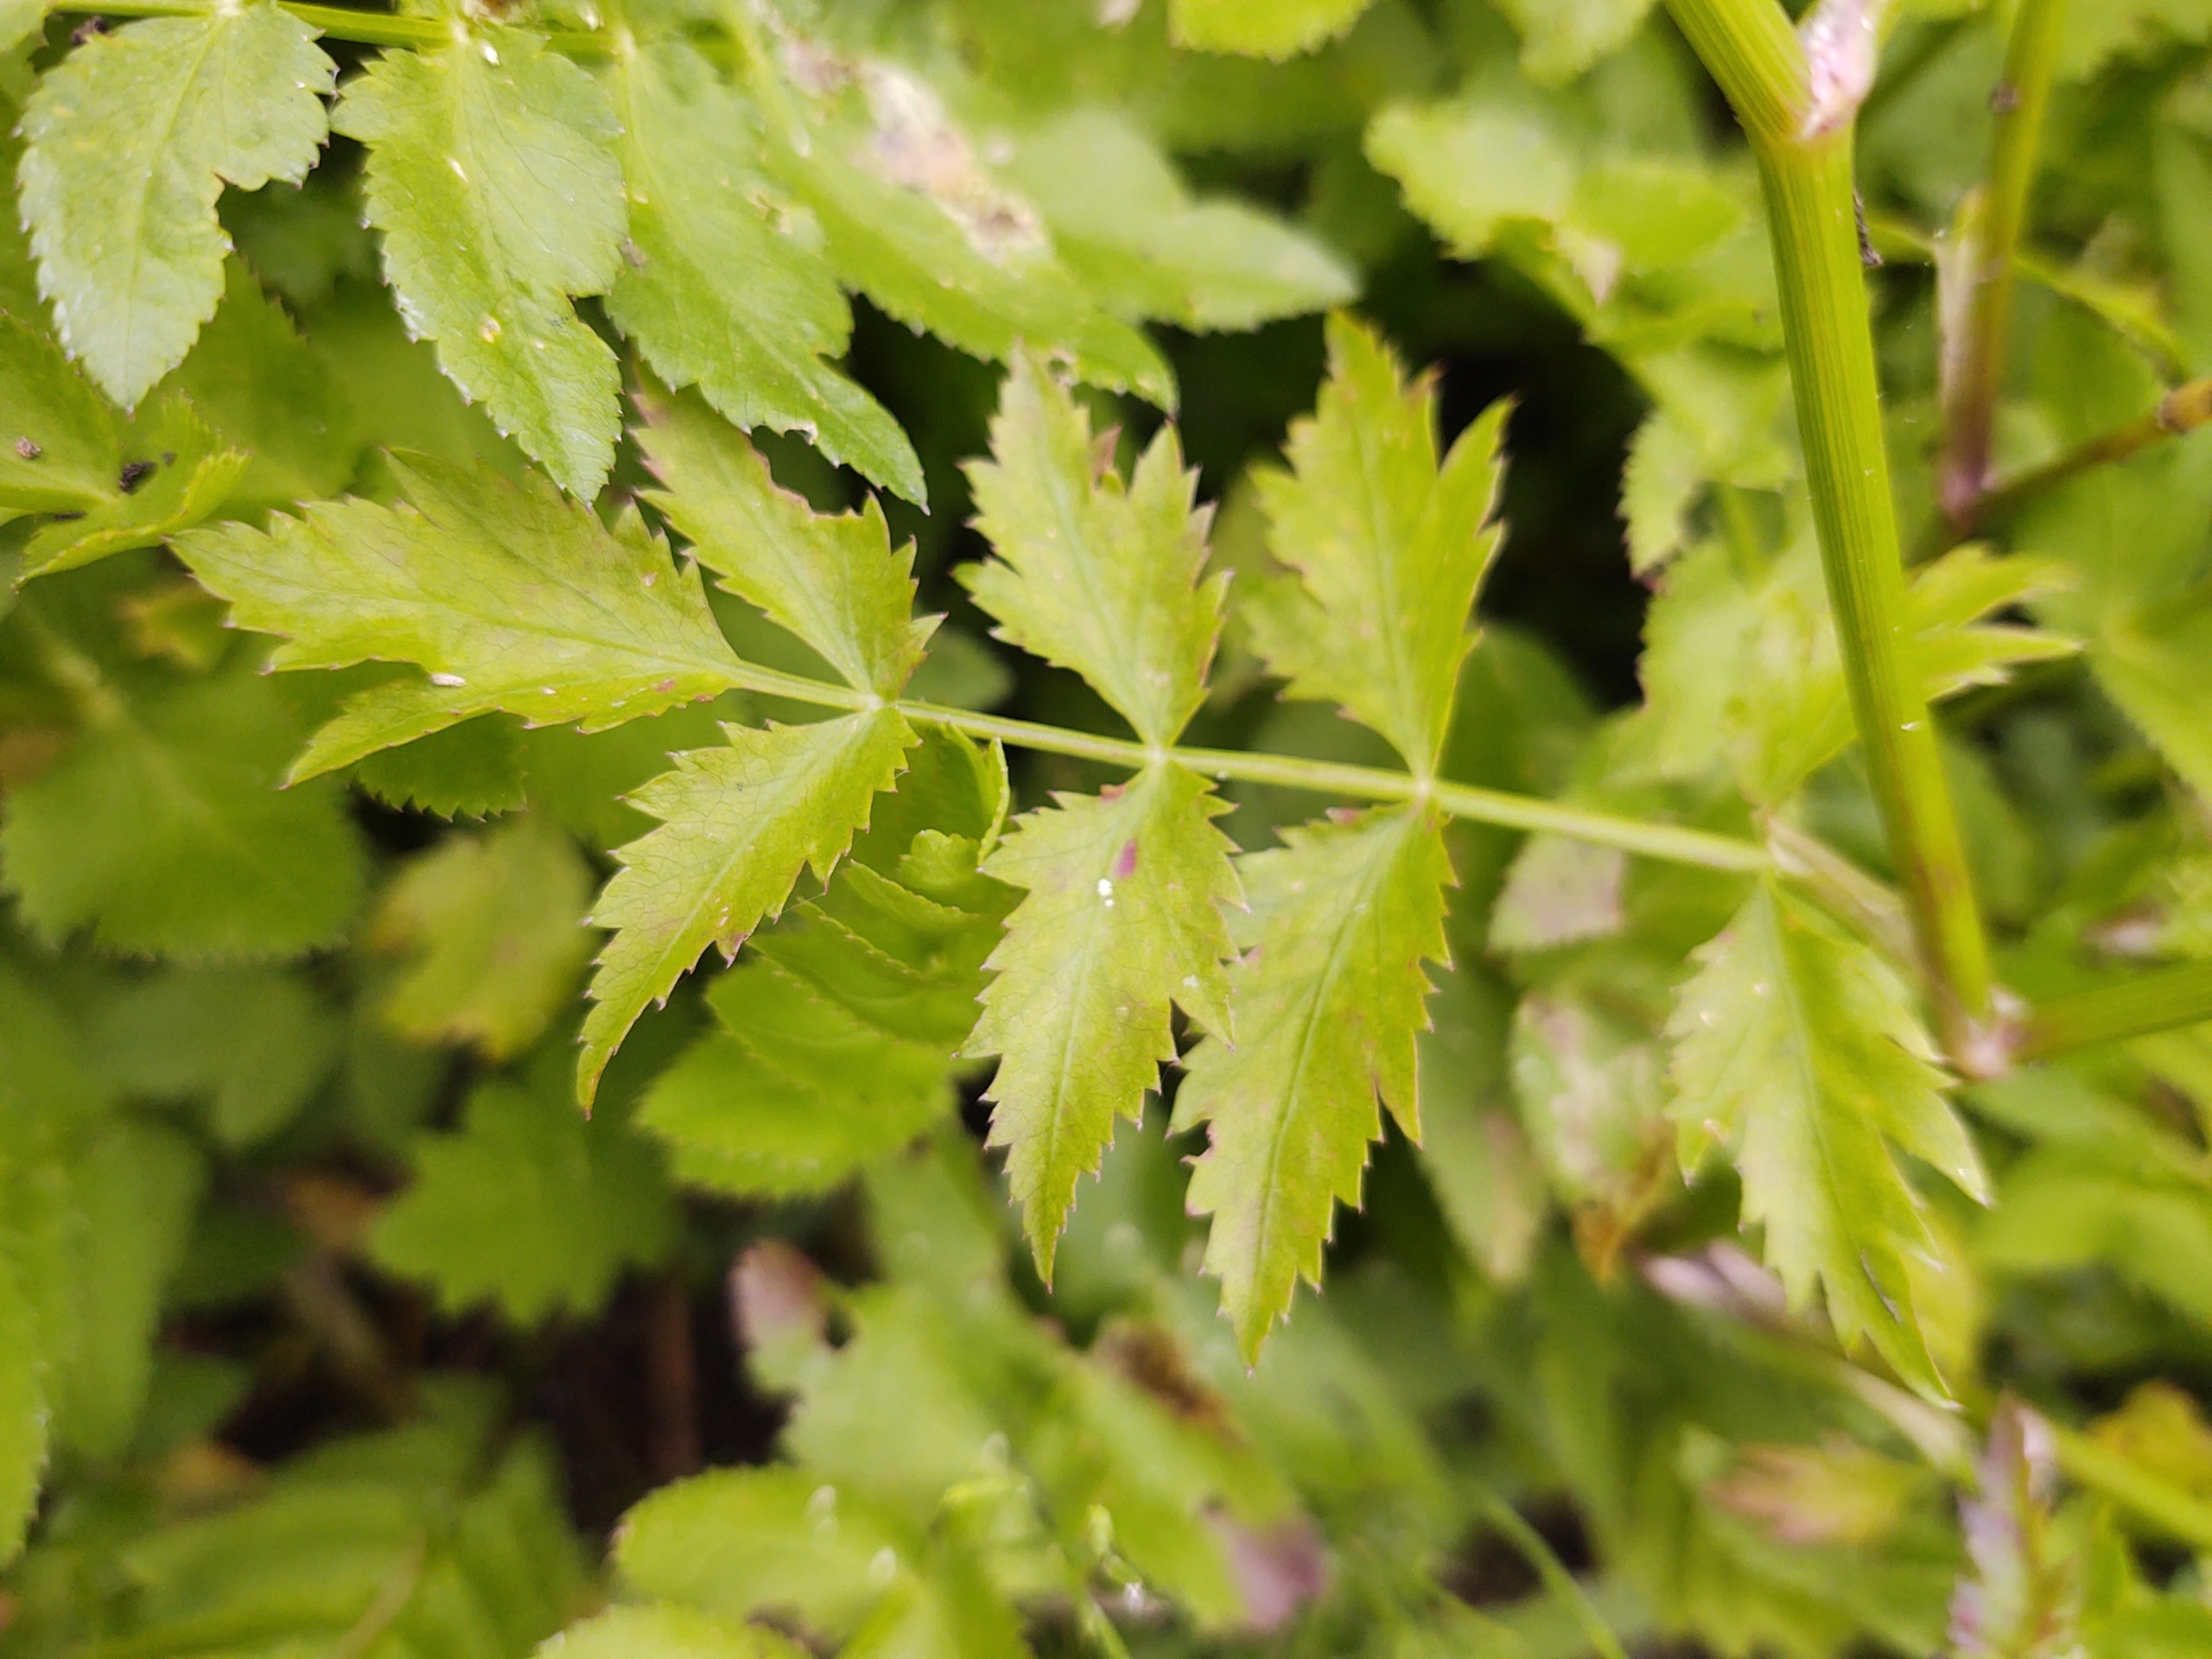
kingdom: Plantae
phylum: Tracheophyta
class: Magnoliopsida
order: Apiales
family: Apiaceae
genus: Berula
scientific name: Berula erecta
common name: Sideskærm
